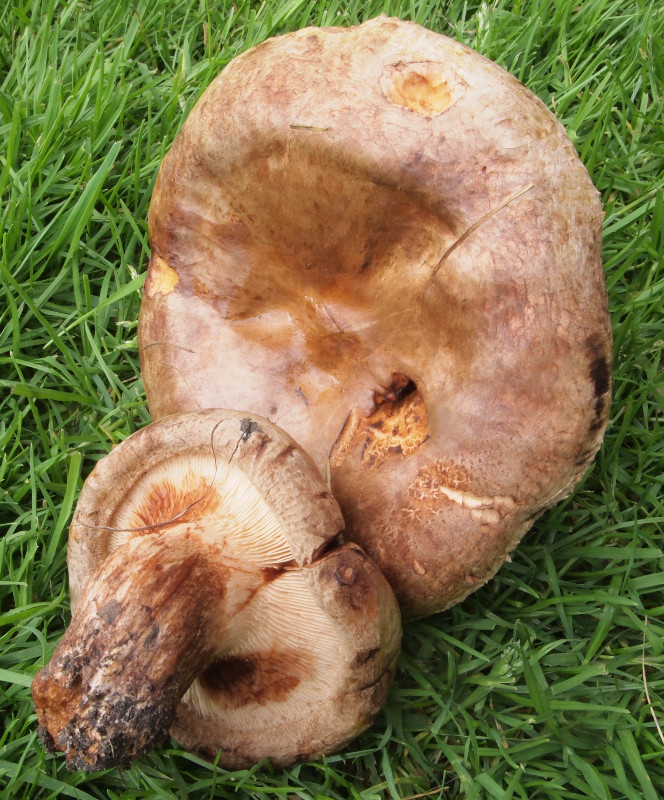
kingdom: Fungi
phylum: Basidiomycota
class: Agaricomycetes
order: Boletales
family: Paxillaceae
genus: Paxillus
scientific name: Paxillus obscurisporus
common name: mahognisporet netbladhat
